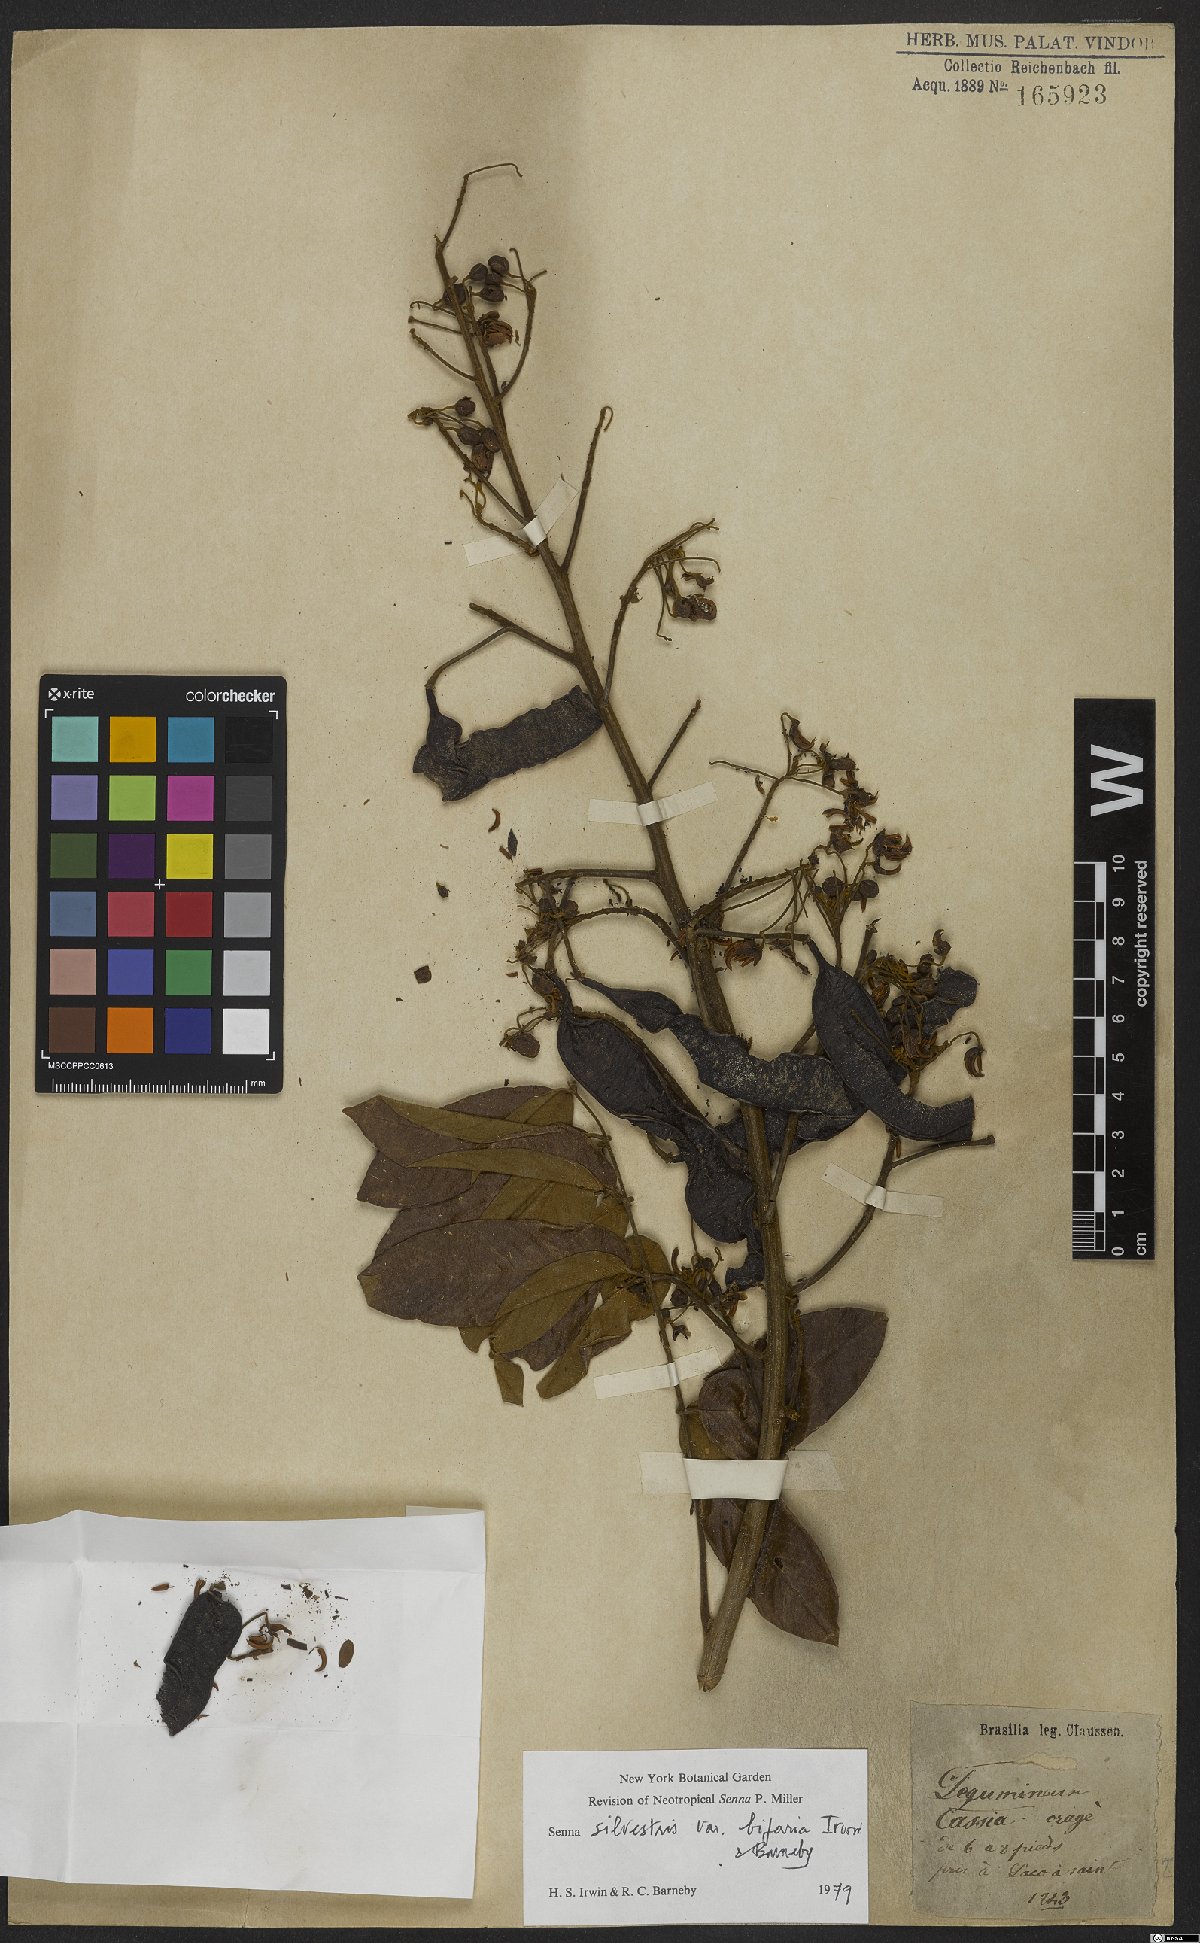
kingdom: Plantae
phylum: Tracheophyta
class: Magnoliopsida
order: Fabales
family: Fabaceae
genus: Senna
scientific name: Senna silvestris
